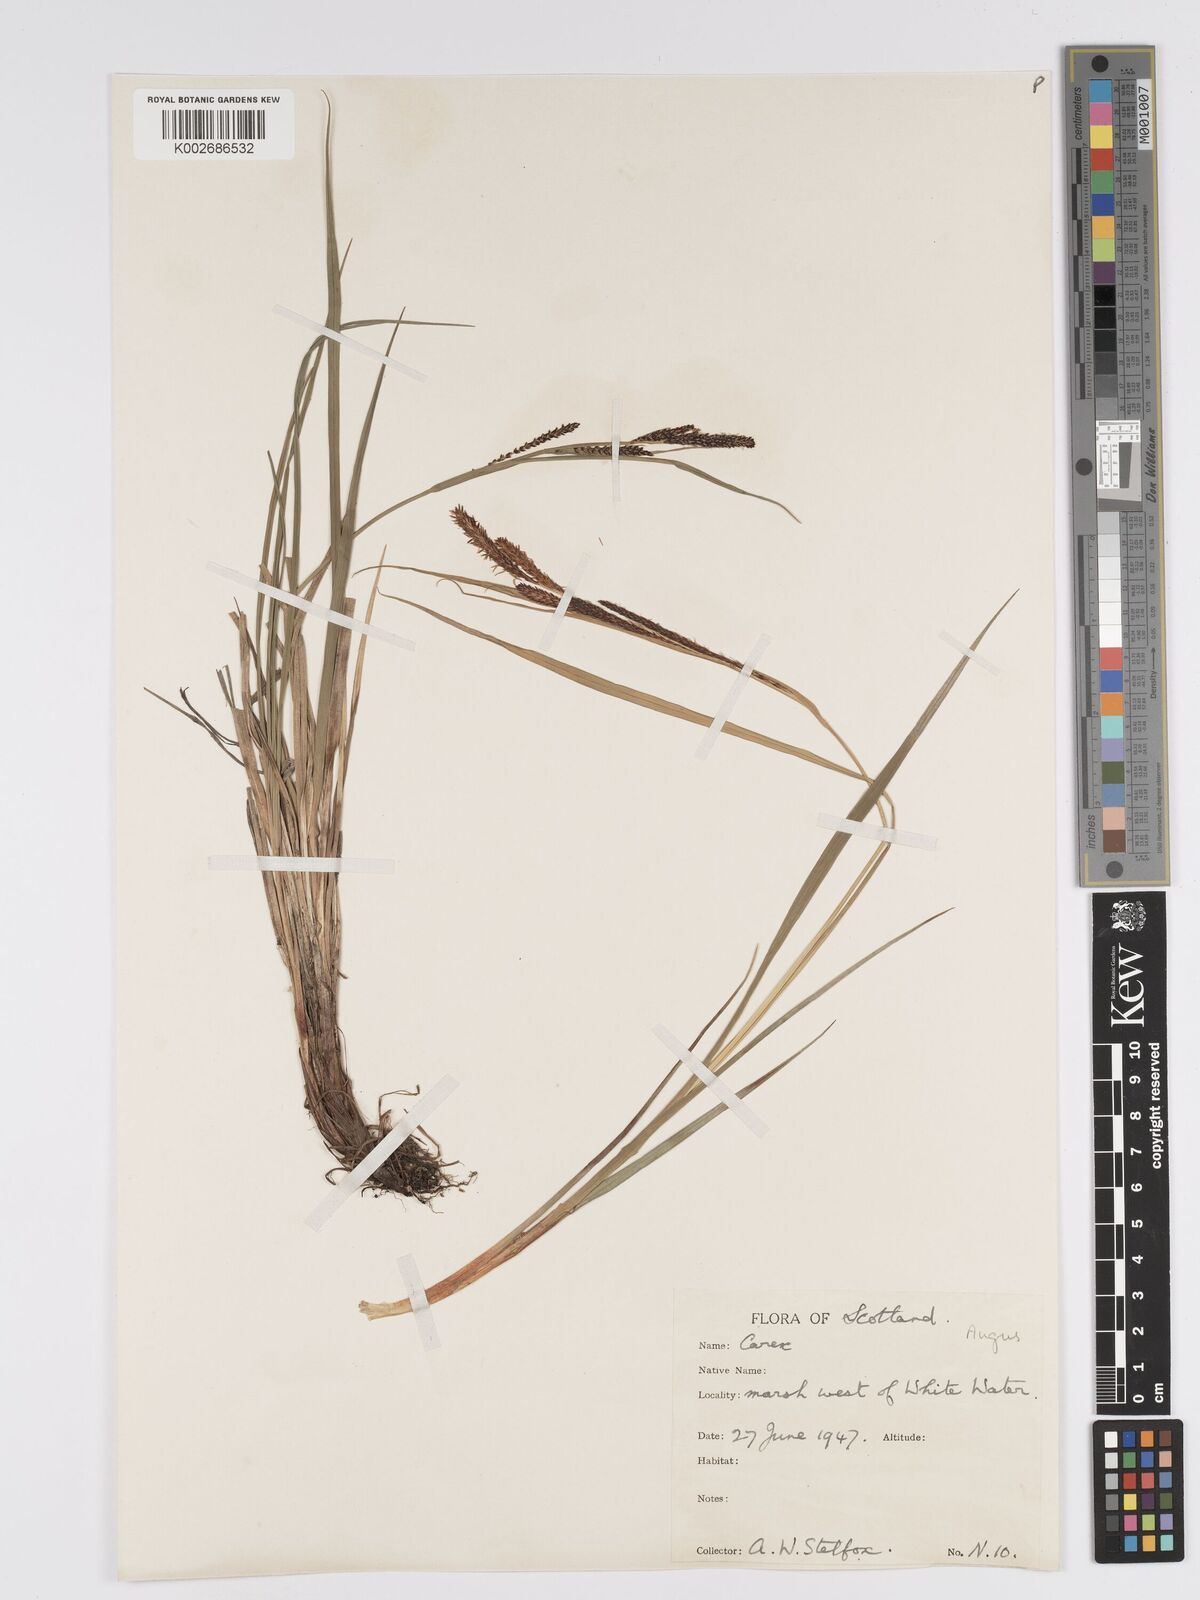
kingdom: Plantae
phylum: Tracheophyta
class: Liliopsida
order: Poales
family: Cyperaceae
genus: Carex
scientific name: Carex aquatilis
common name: Water sedge
